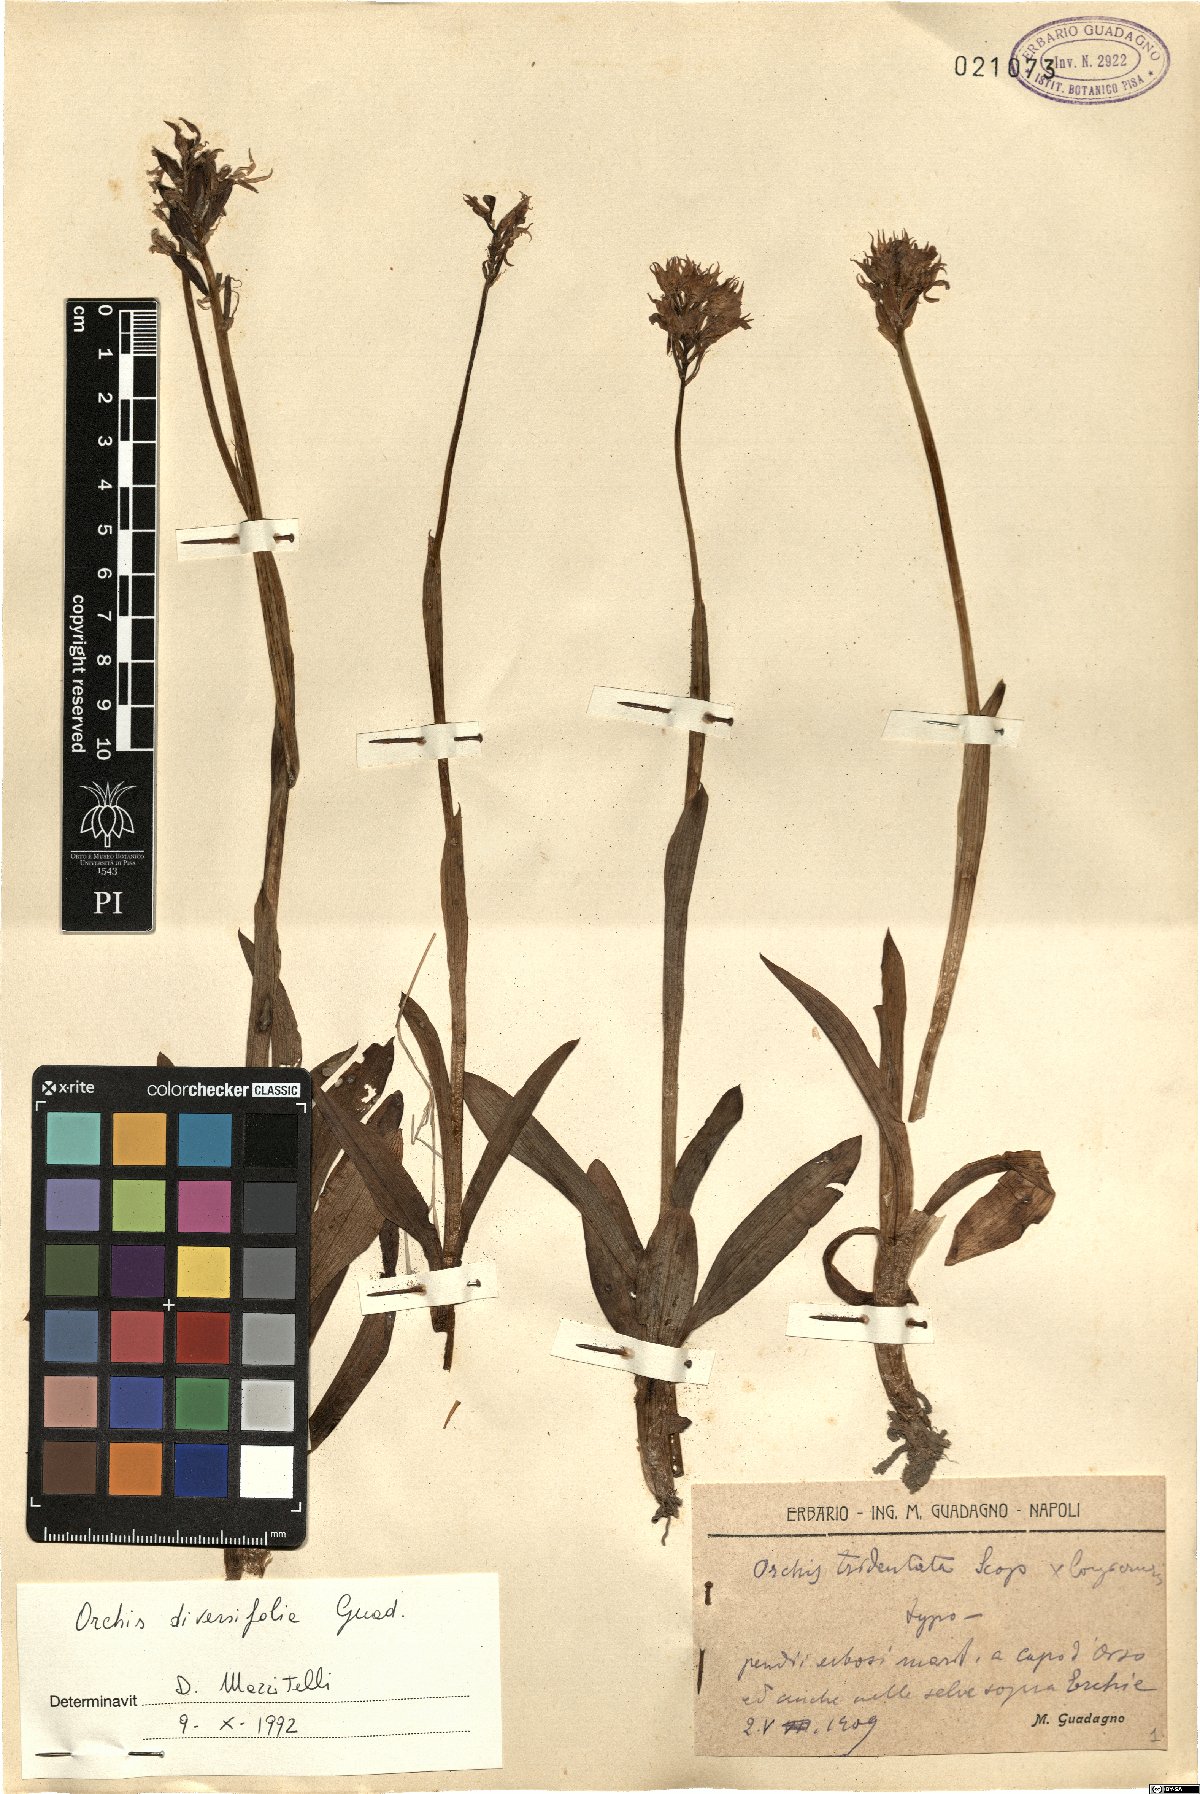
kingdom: Plantae
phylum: Tracheophyta
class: Liliopsida
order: Asparagales
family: Orchidaceae
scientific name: Orchidaceae
